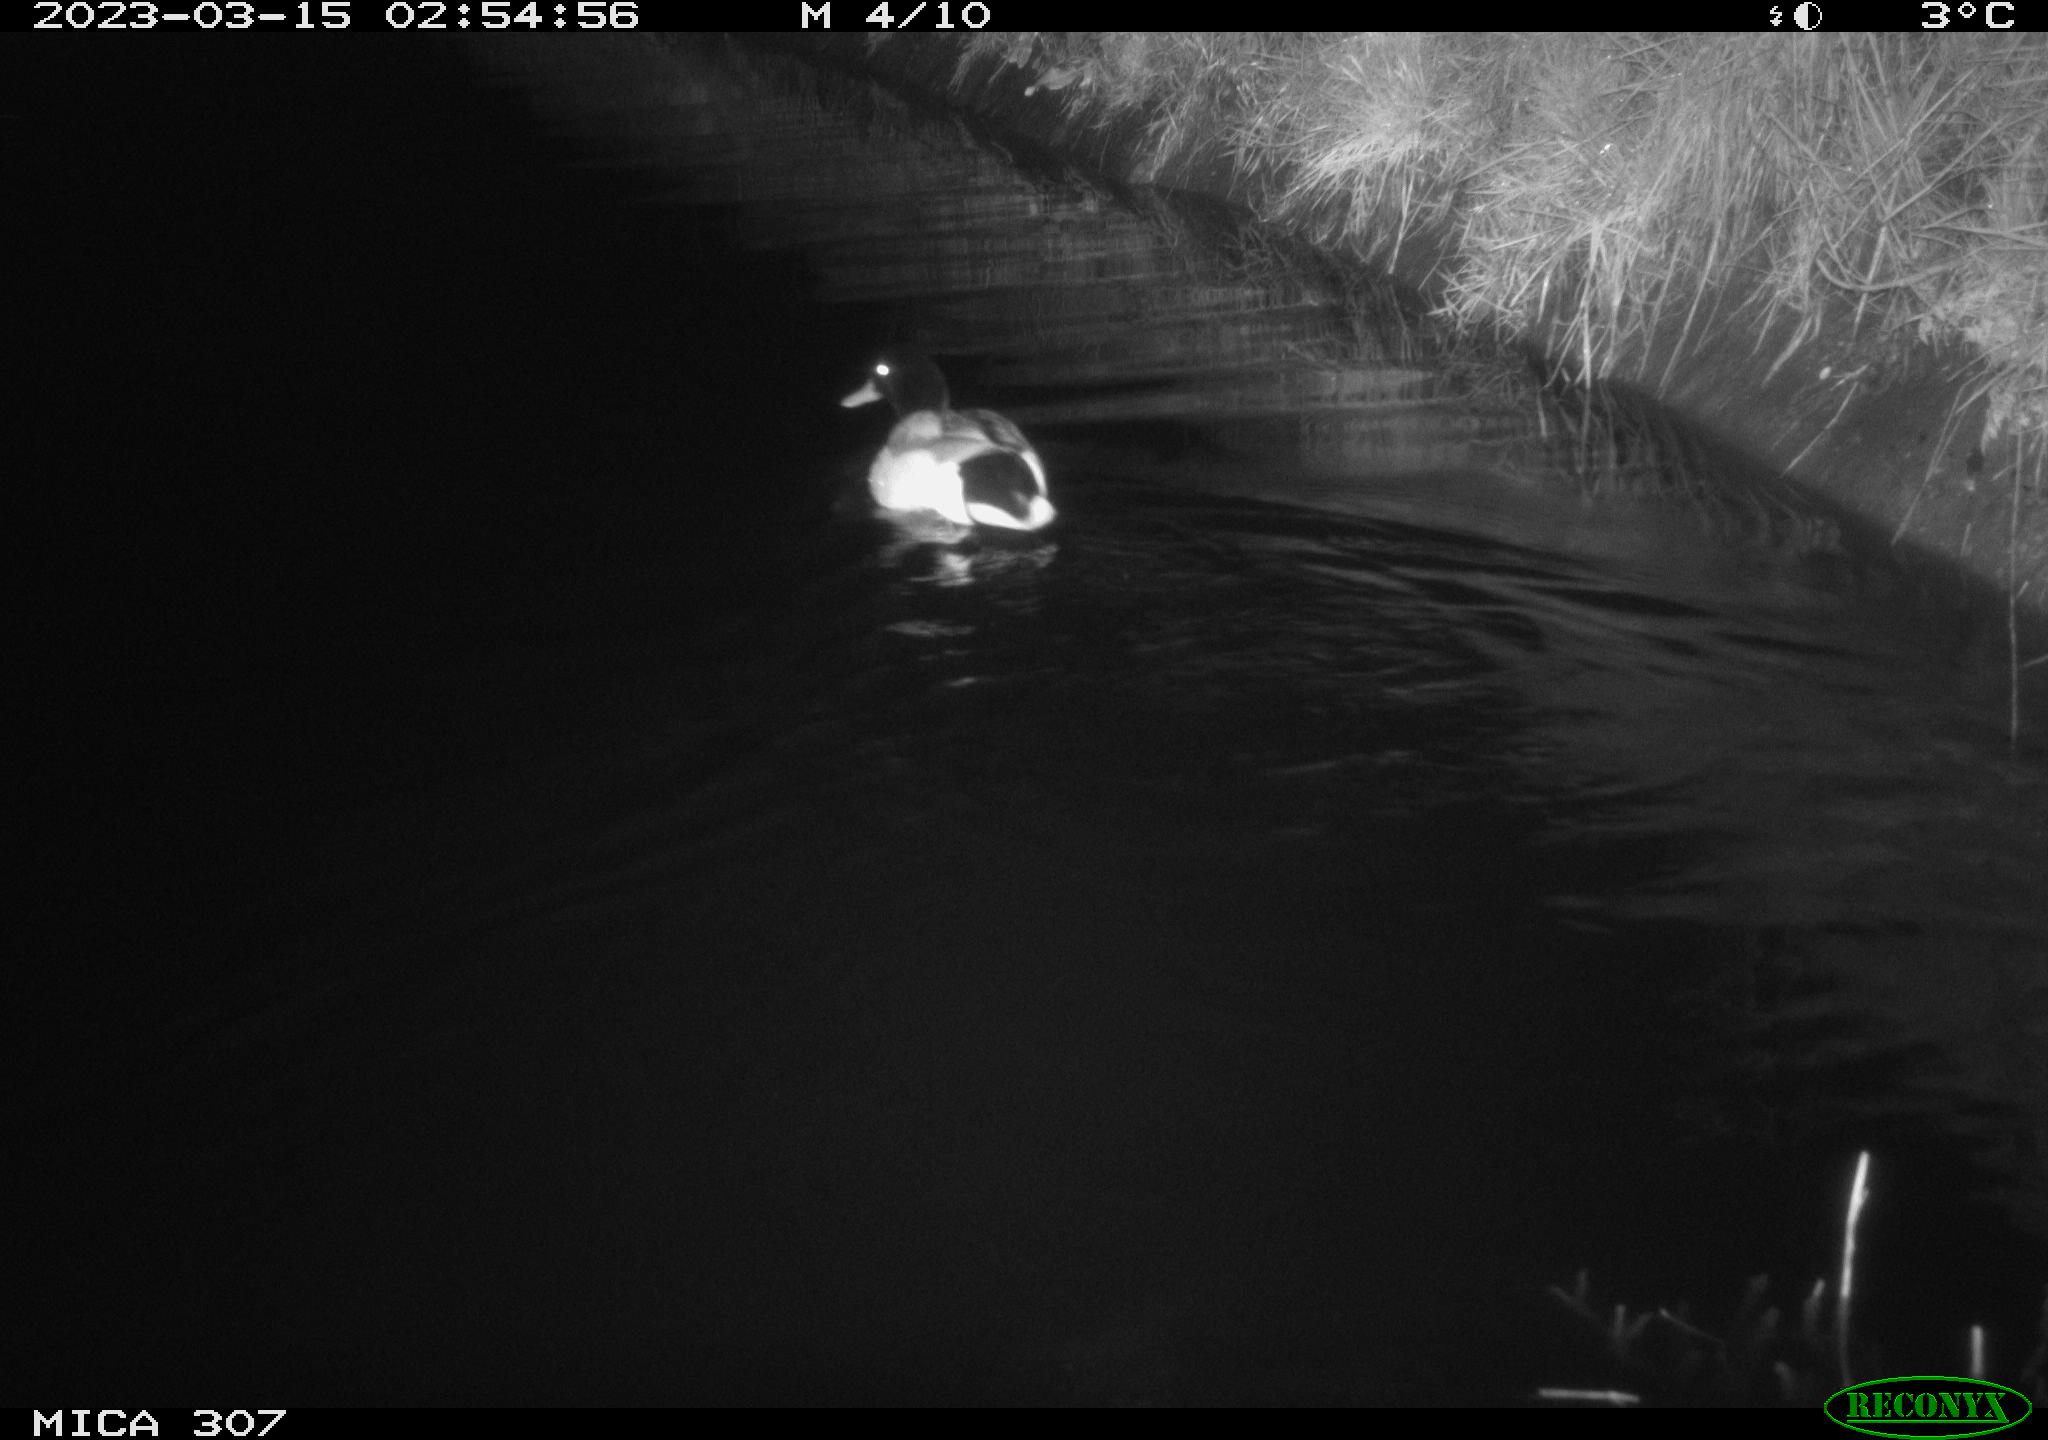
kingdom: Animalia
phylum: Chordata
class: Aves
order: Anseriformes
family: Anatidae
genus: Anas
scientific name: Anas
